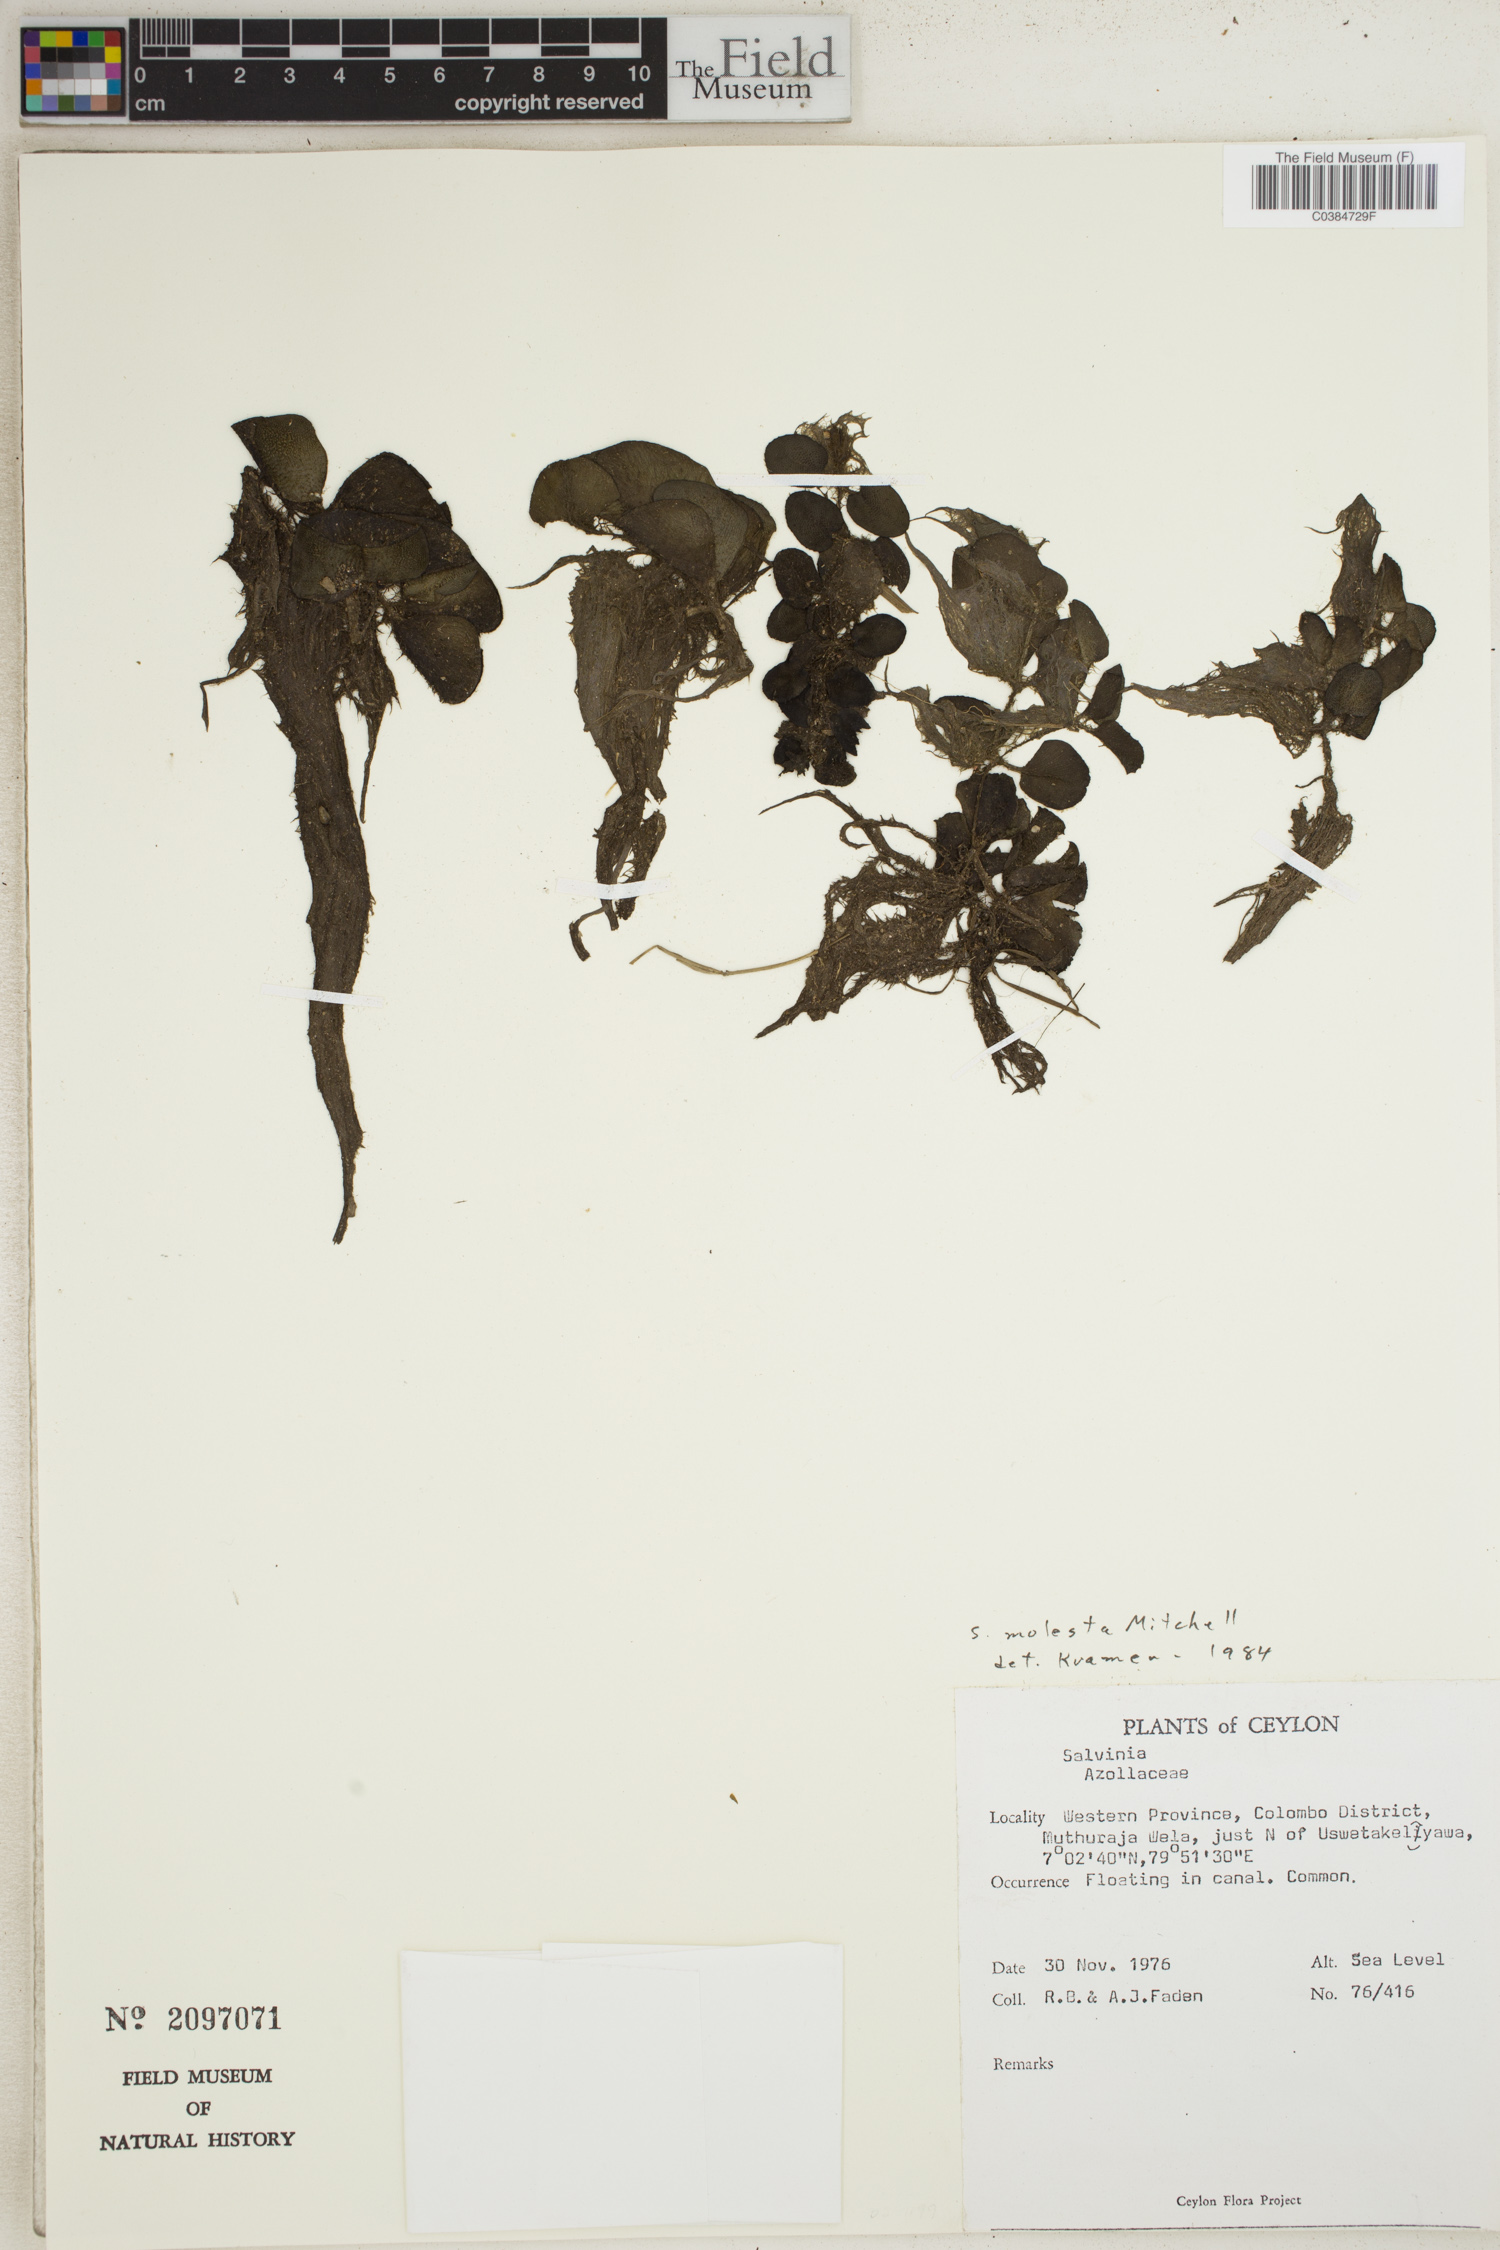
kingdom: Plantae
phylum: Tracheophyta
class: Polypodiopsida
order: Salviniales
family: Salviniaceae
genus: Salvinia
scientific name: Salvinia molesta
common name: Kariba weed
